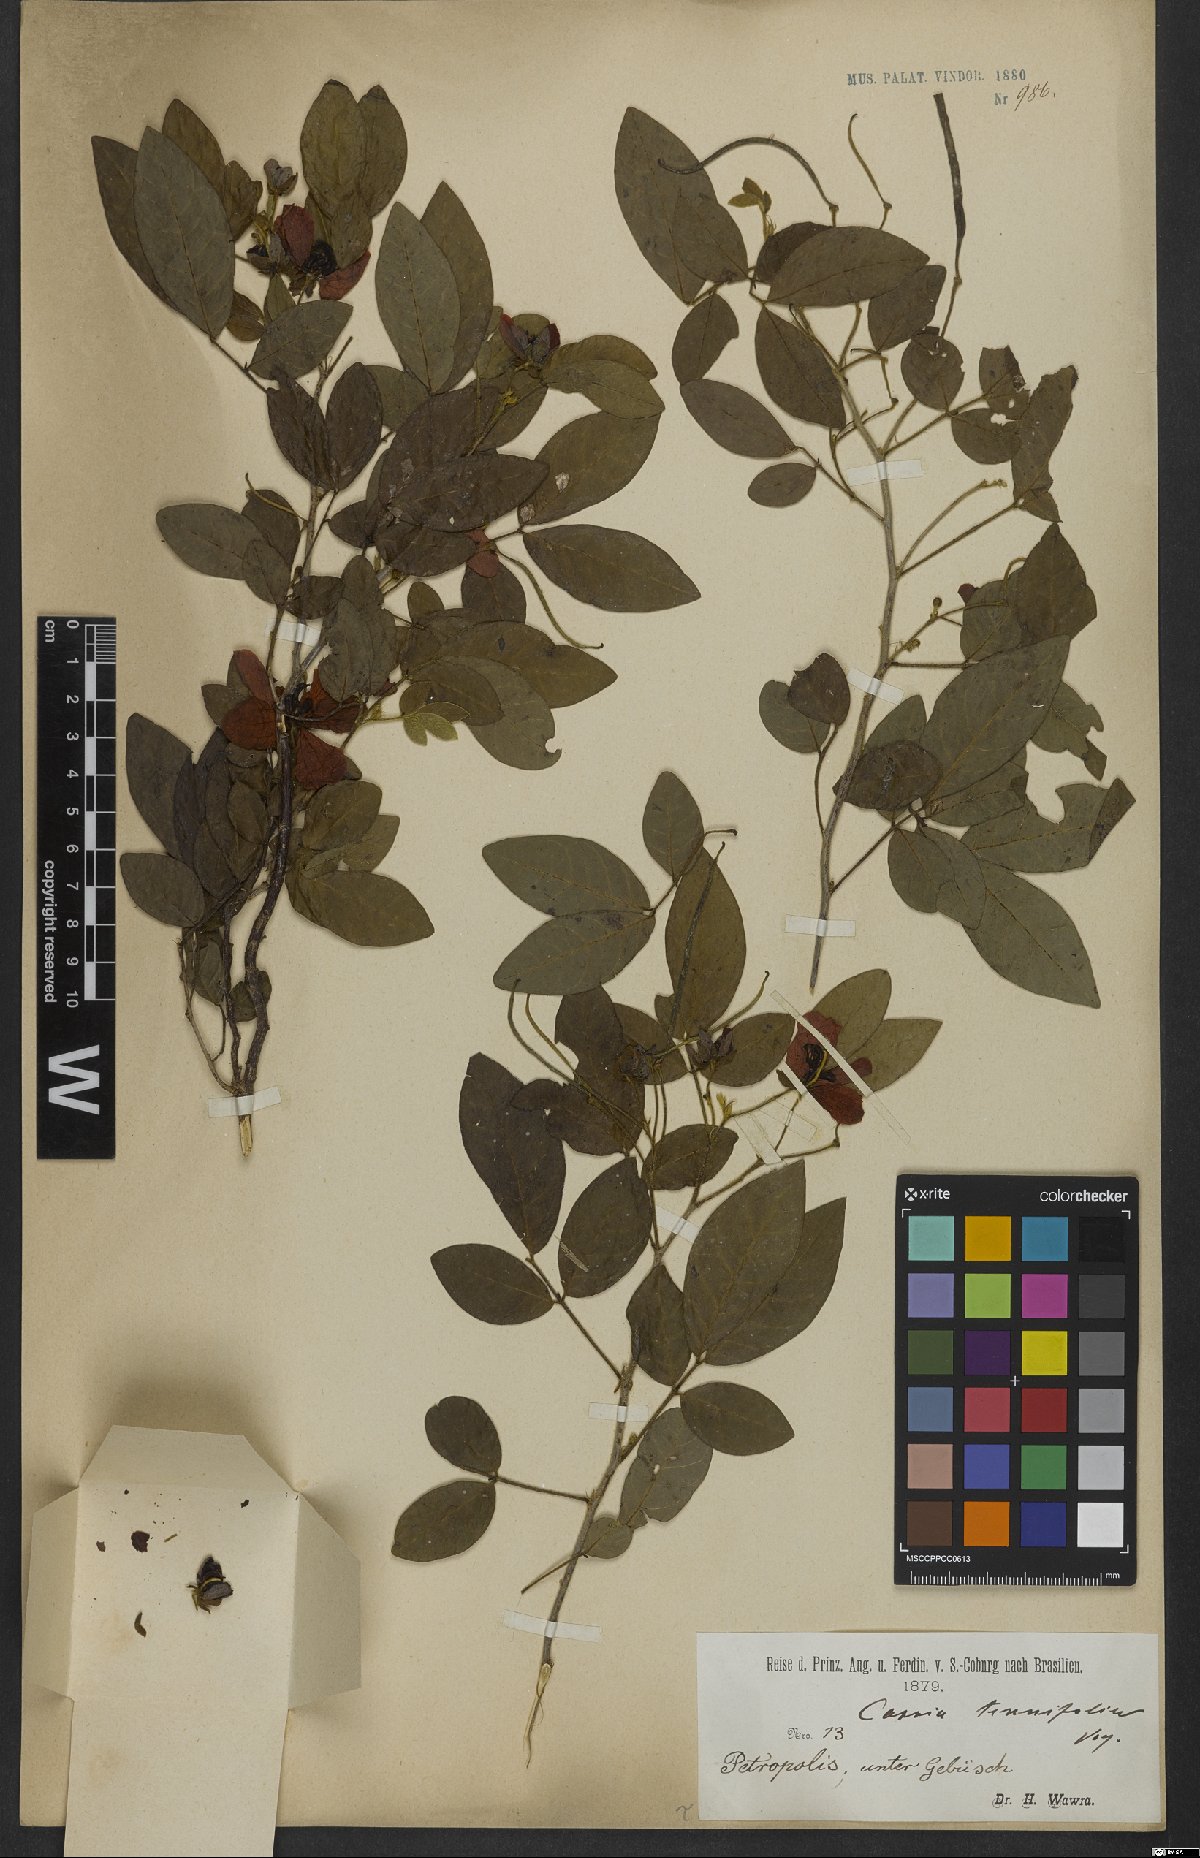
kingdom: Plantae
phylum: Tracheophyta
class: Magnoliopsida
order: Fabales
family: Fabaceae
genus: Senna
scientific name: Senna tenuifolia
